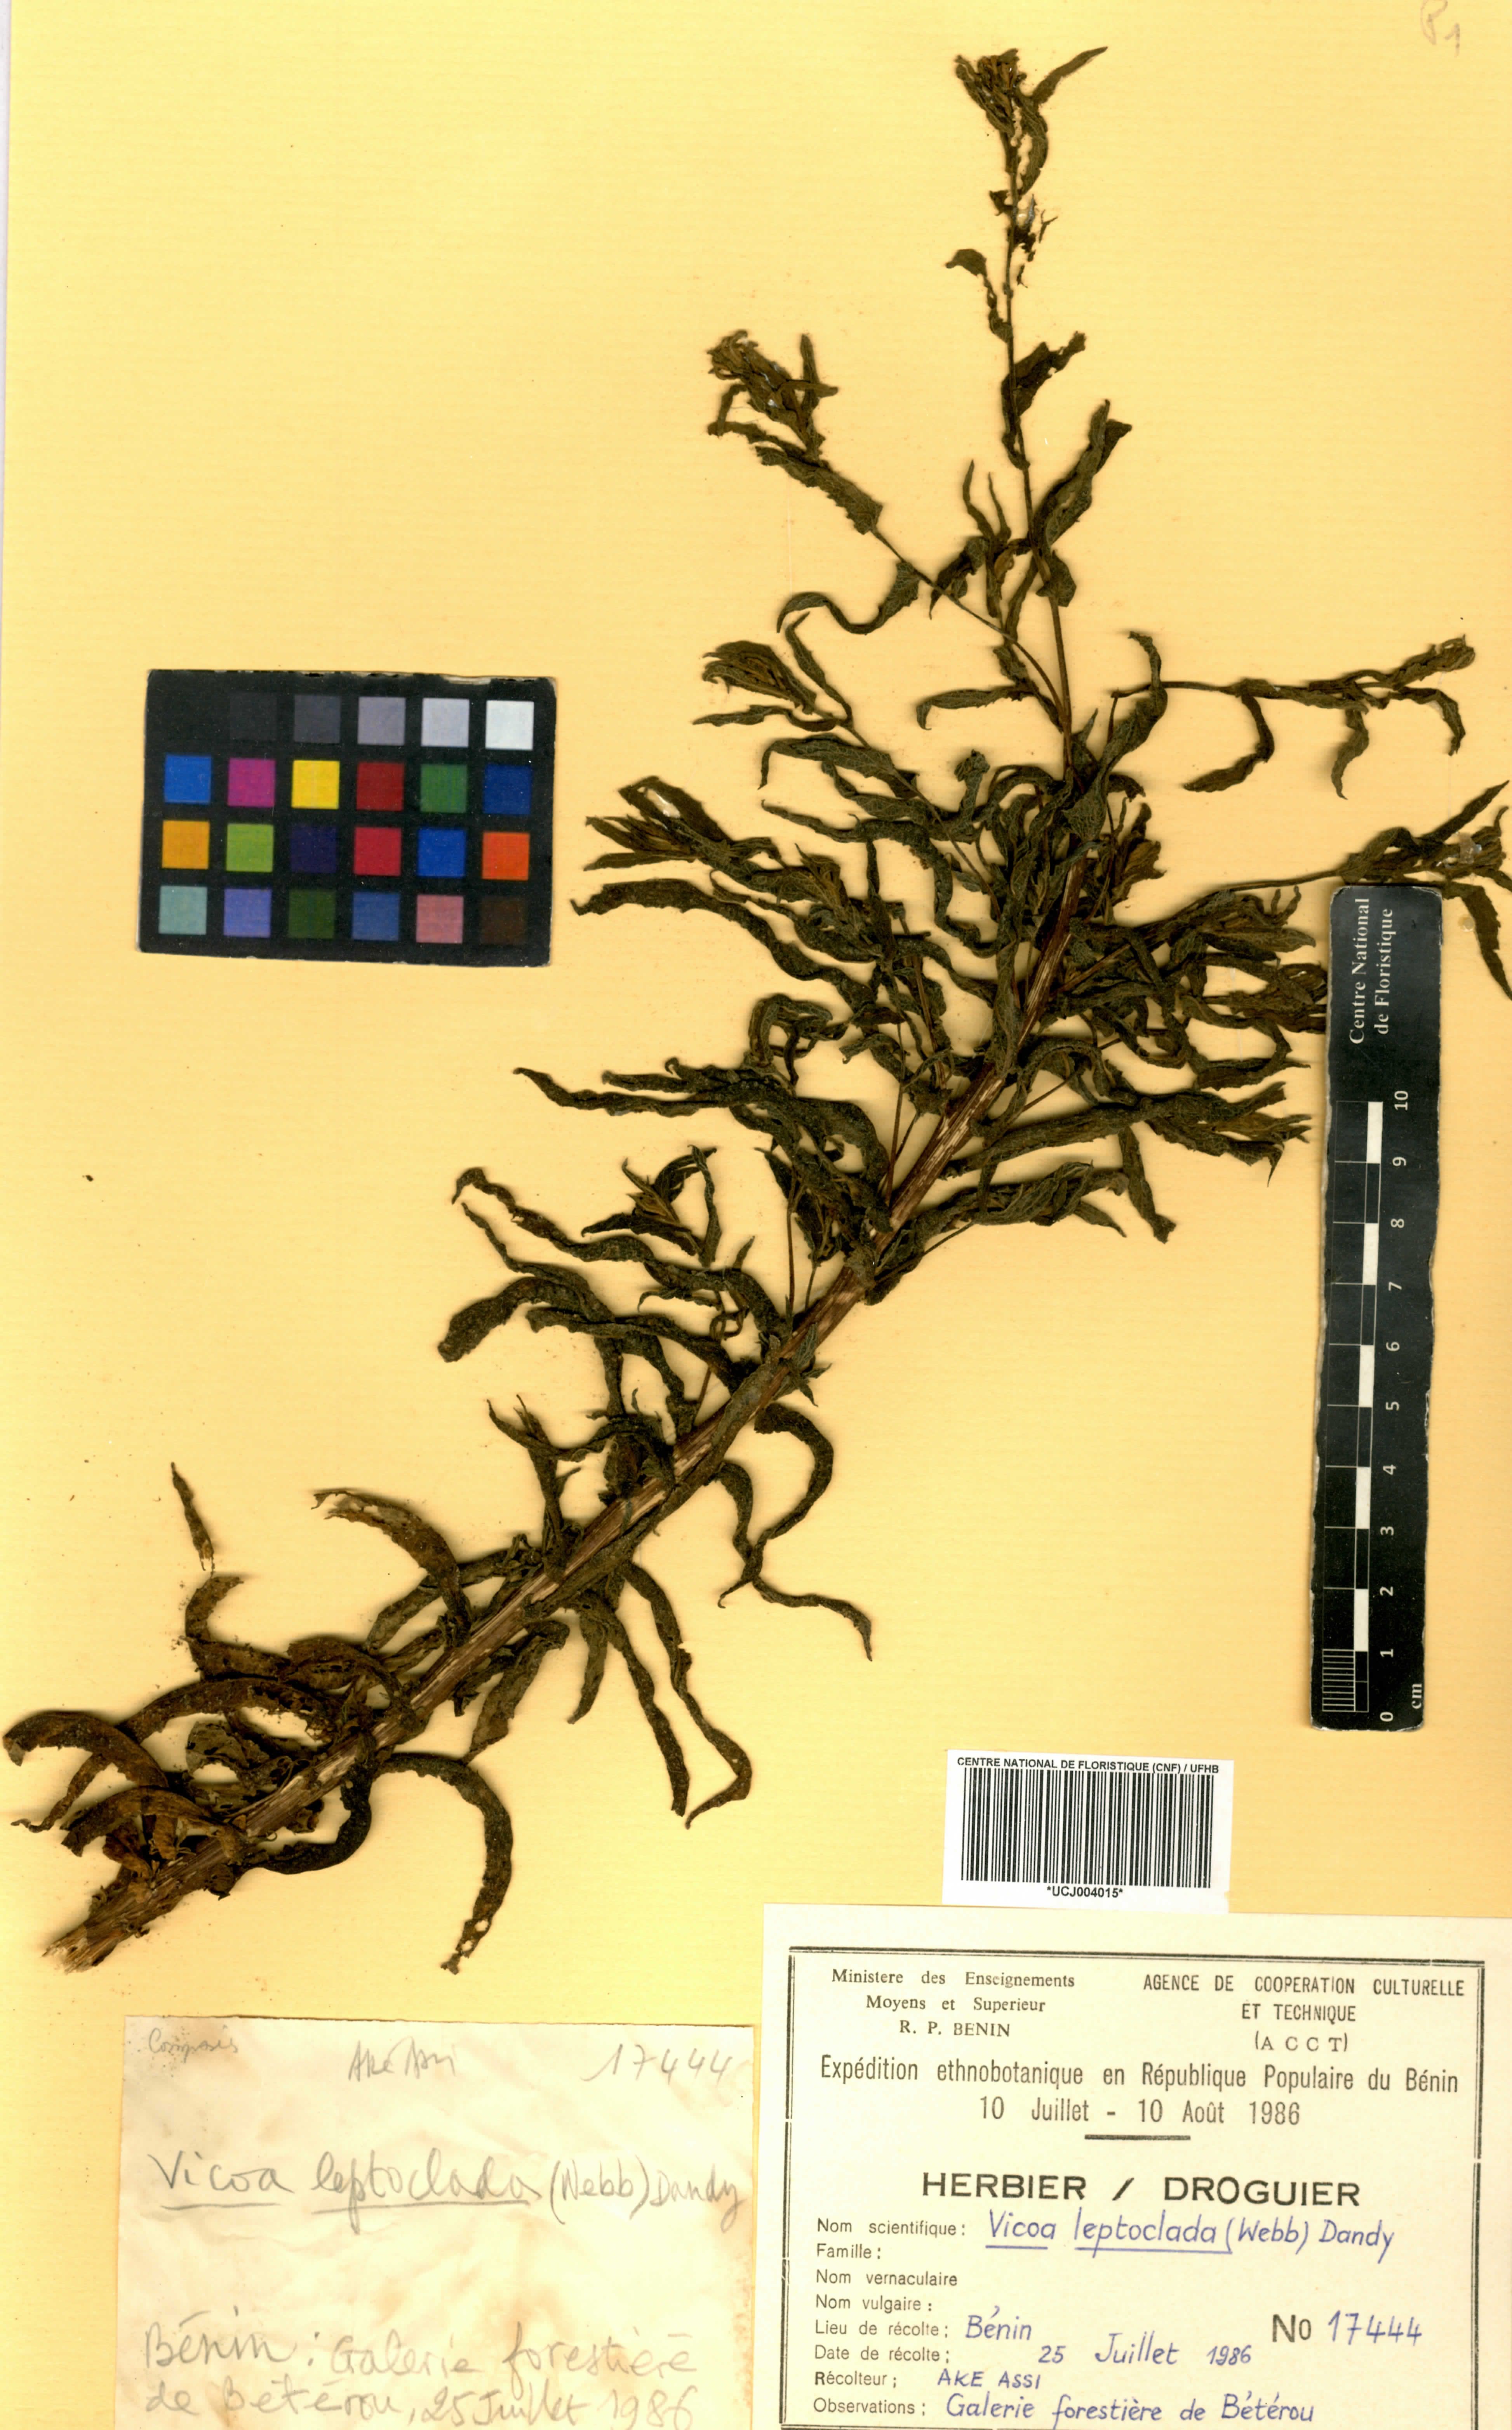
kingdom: Plantae
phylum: Tracheophyta
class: Magnoliopsida
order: Asterales
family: Asteraceae
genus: Vicoa
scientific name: Vicoa indica
